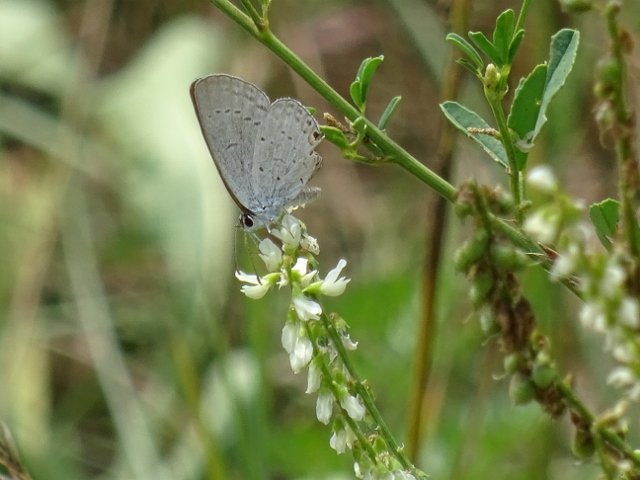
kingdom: Animalia
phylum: Arthropoda
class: Insecta
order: Lepidoptera
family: Lycaenidae
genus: Elkalyce
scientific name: Elkalyce comyntas
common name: Eastern Tailed-Blue
